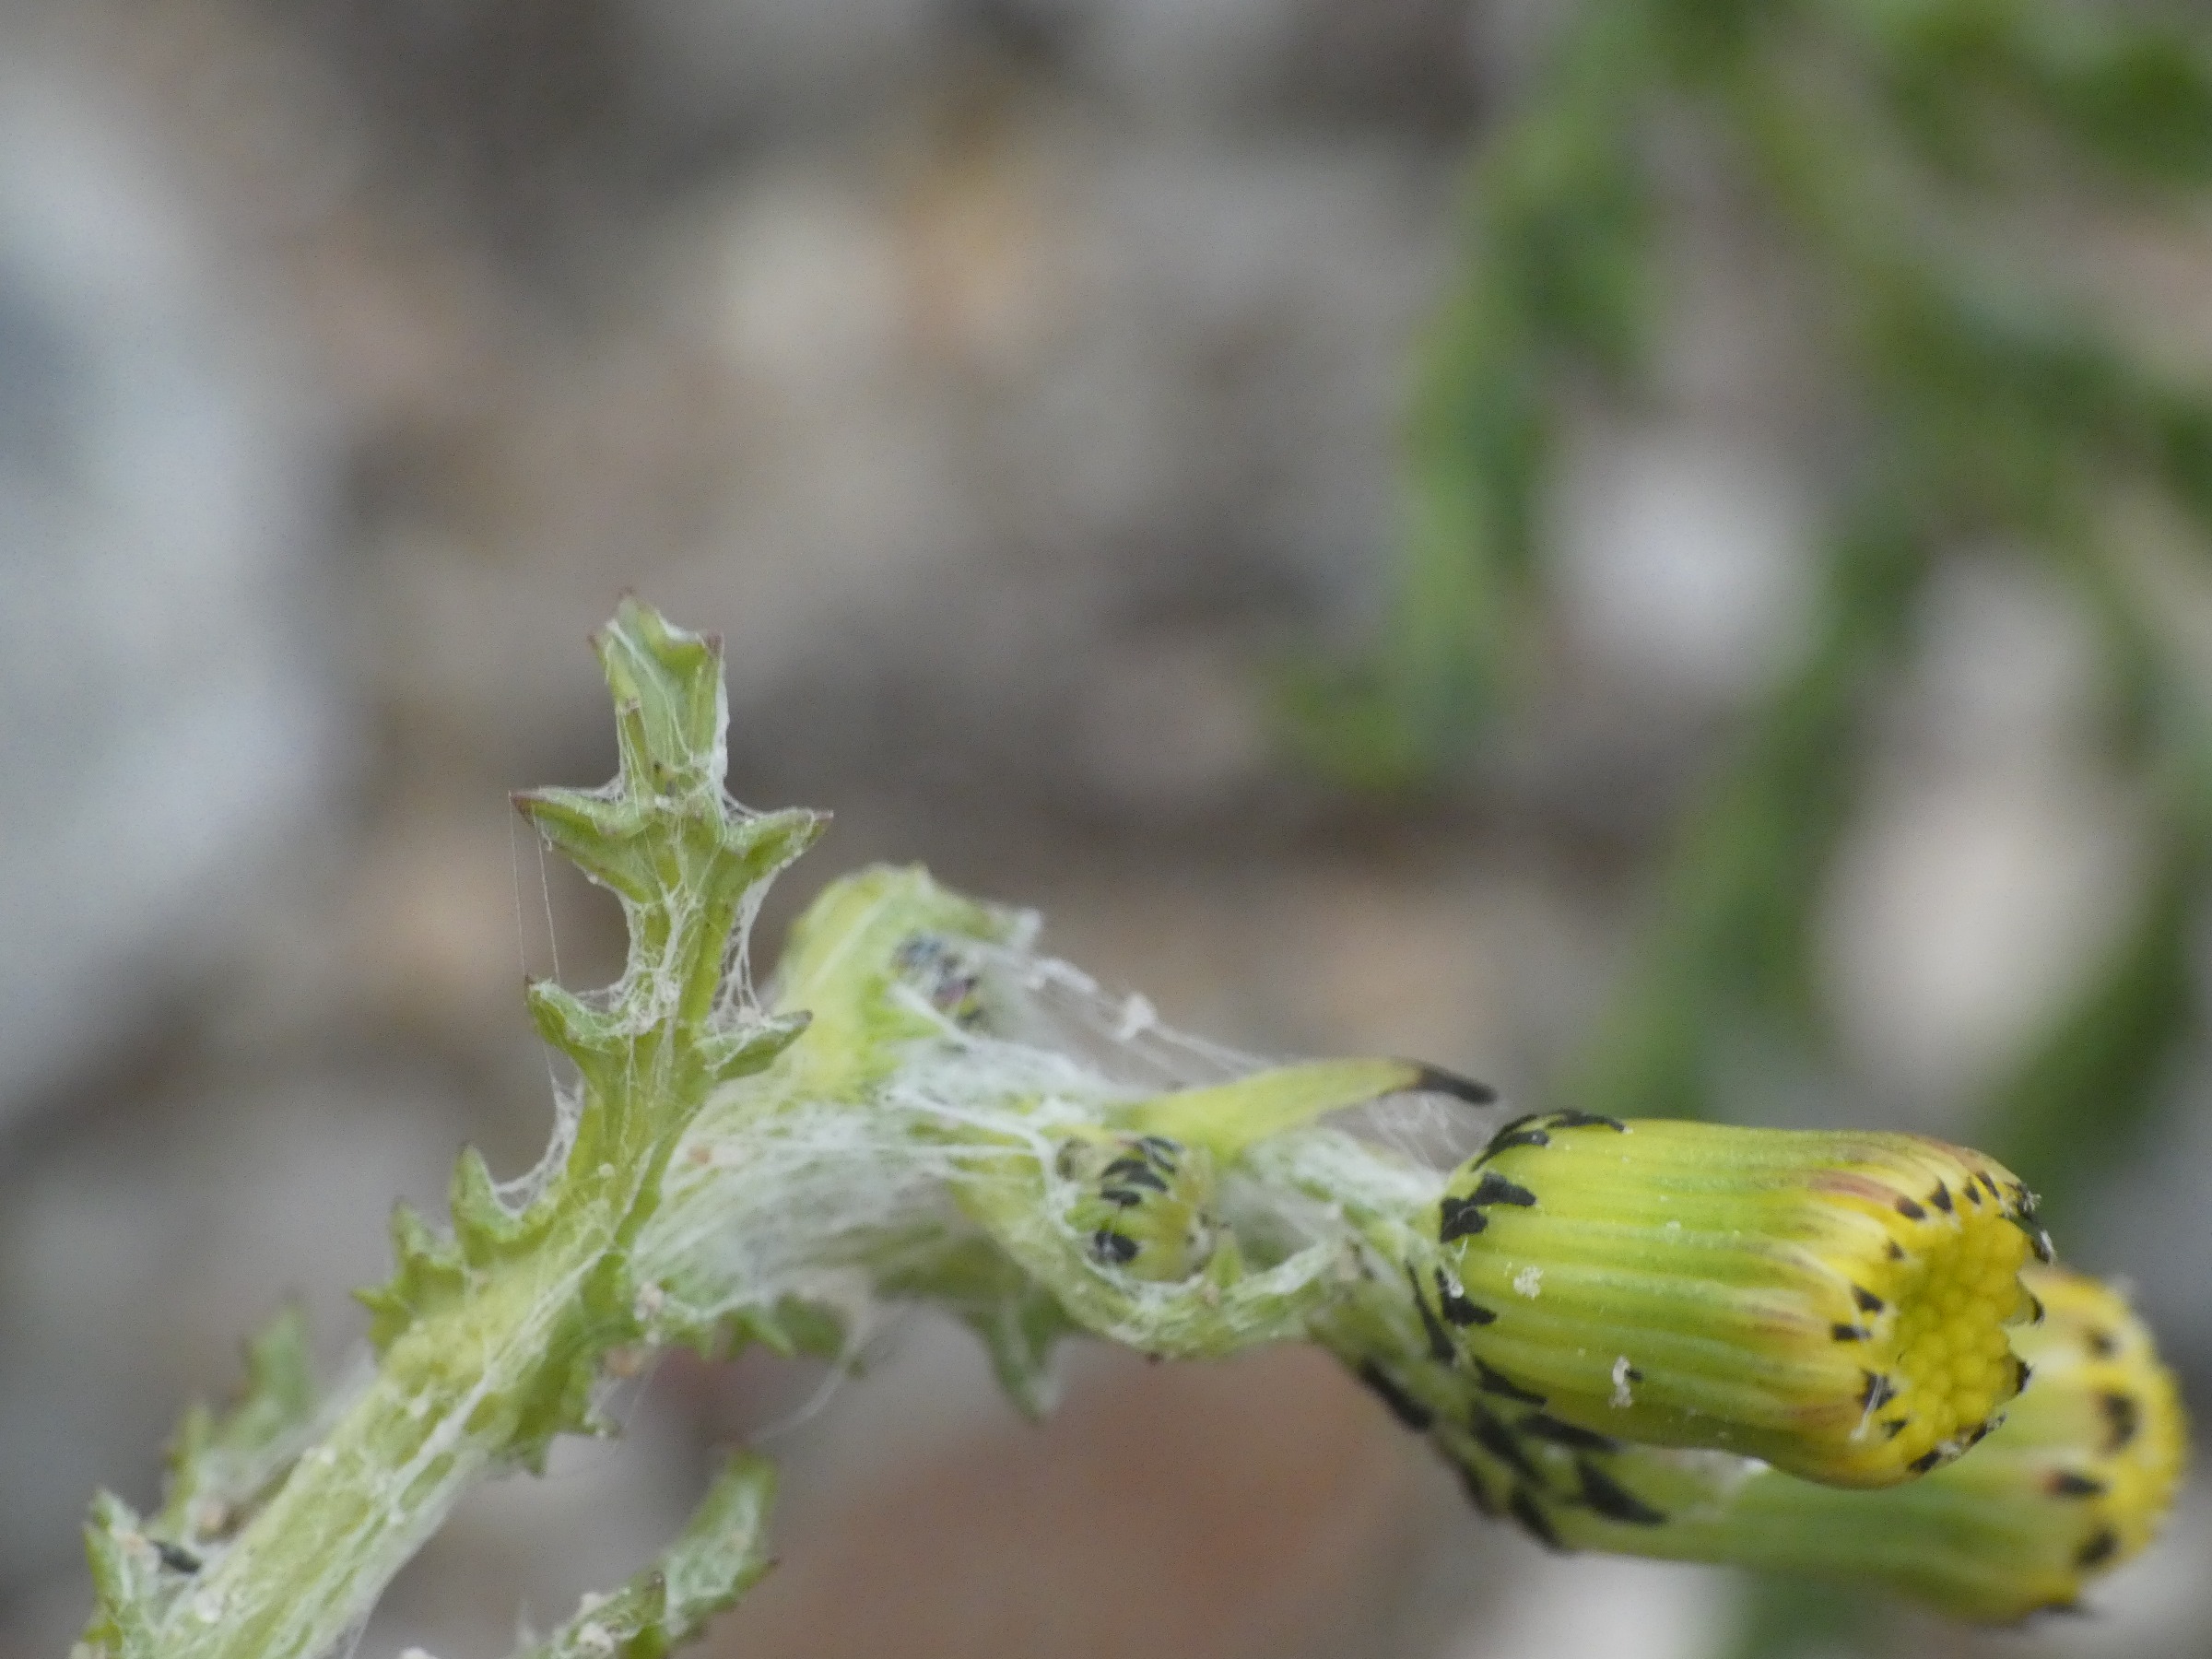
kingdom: Plantae
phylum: Tracheophyta
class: Magnoliopsida
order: Asterales
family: Asteraceae
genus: Senecio
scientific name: Senecio vulgaris
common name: Almindelig brandbæger
